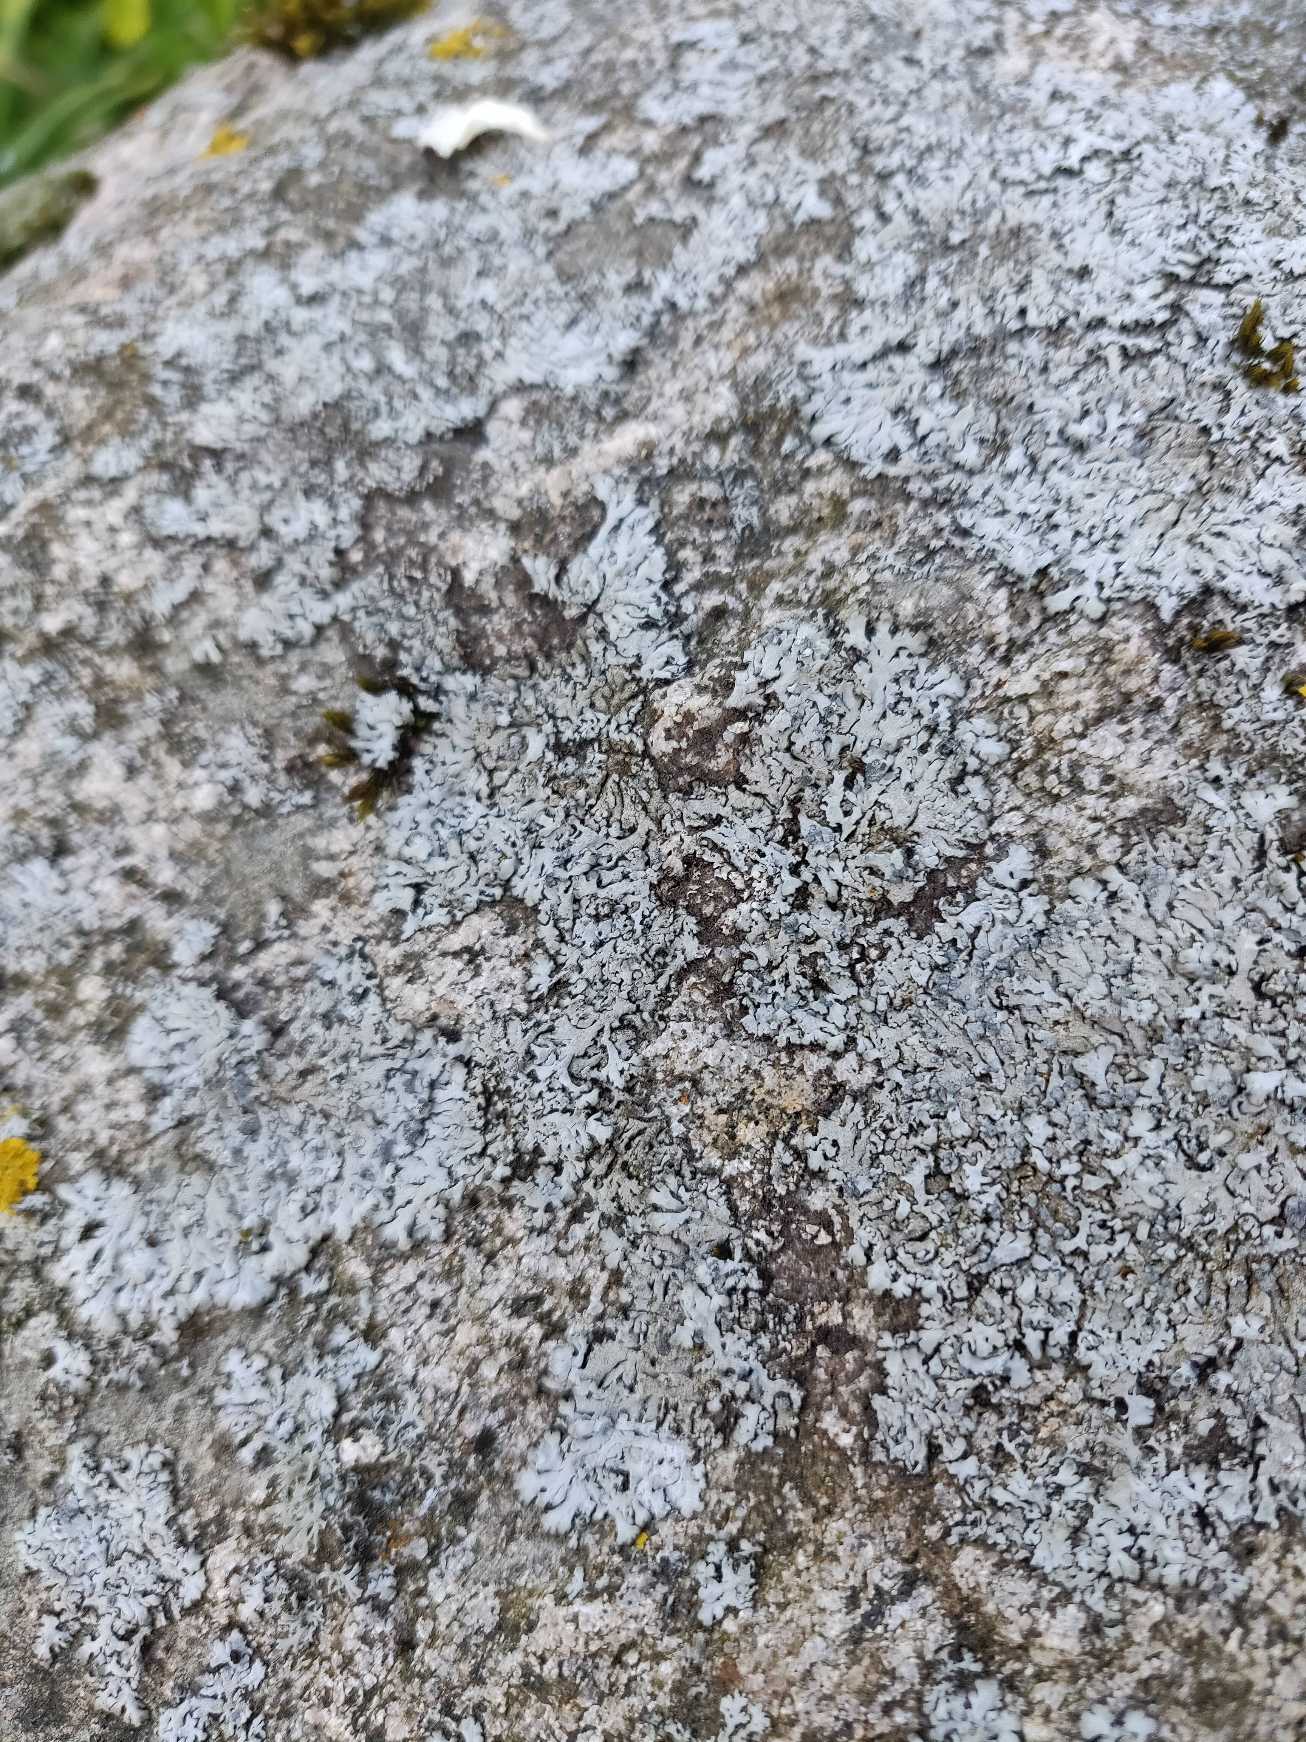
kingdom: Fungi
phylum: Ascomycota
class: Lecanoromycetes
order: Caliciales
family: Physciaceae
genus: Physcia
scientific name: Physcia caesia
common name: Blågrå rosetlav
